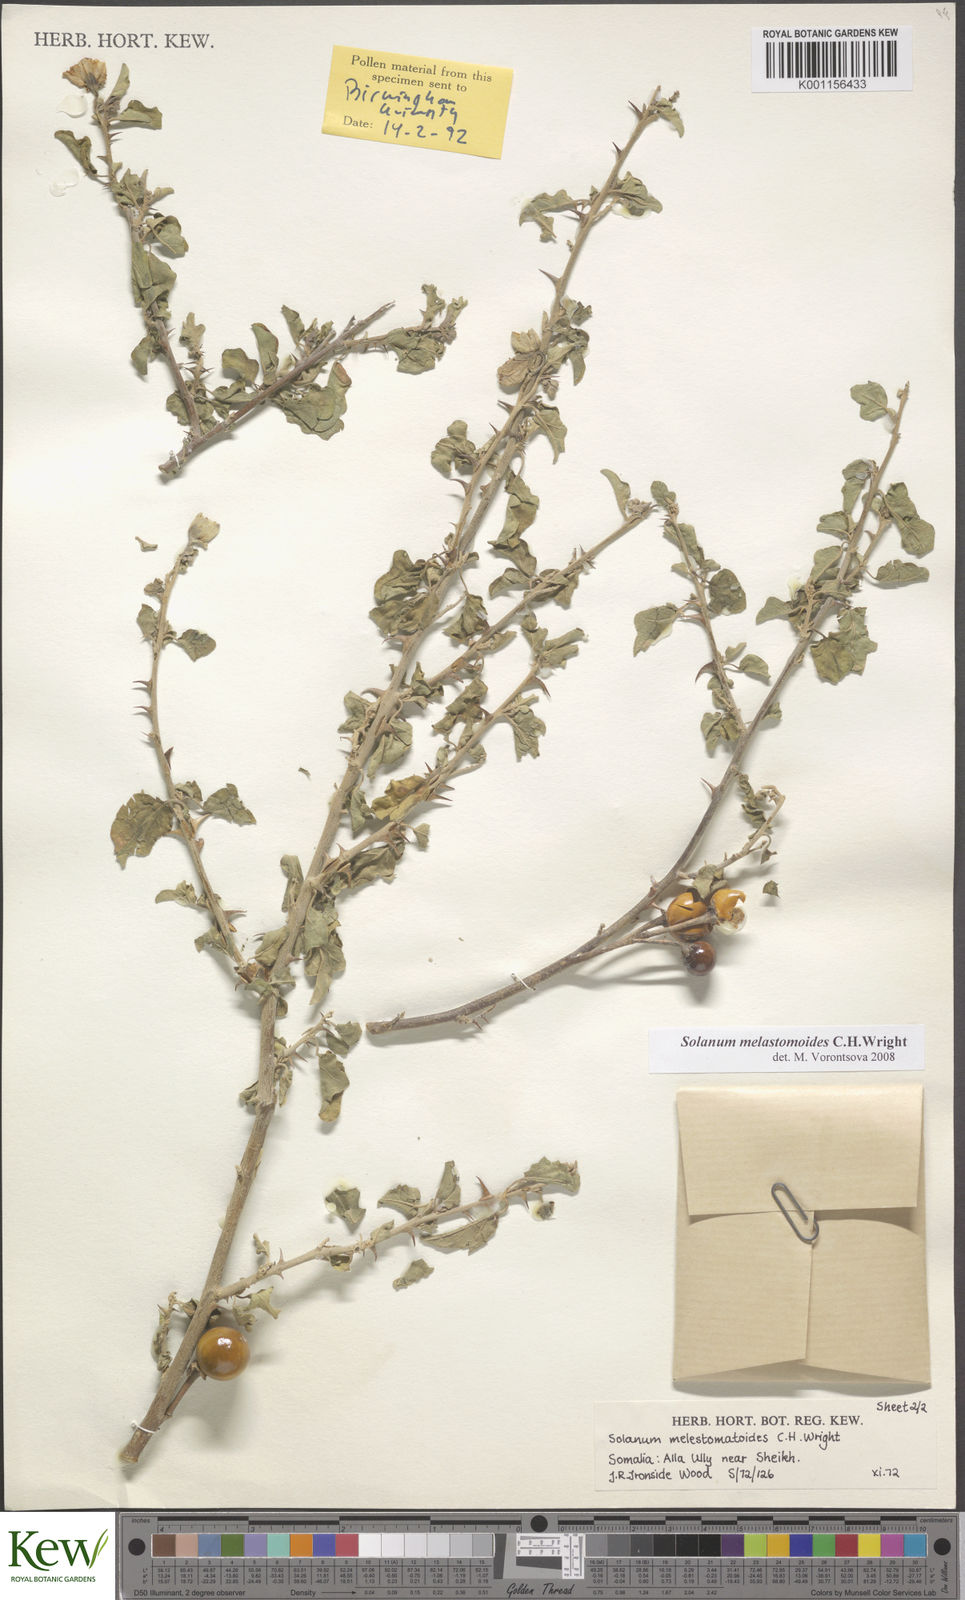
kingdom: Plantae
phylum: Tracheophyta
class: Magnoliopsida
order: Solanales
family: Solanaceae
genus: Solanum
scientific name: Solanum melastomoides
